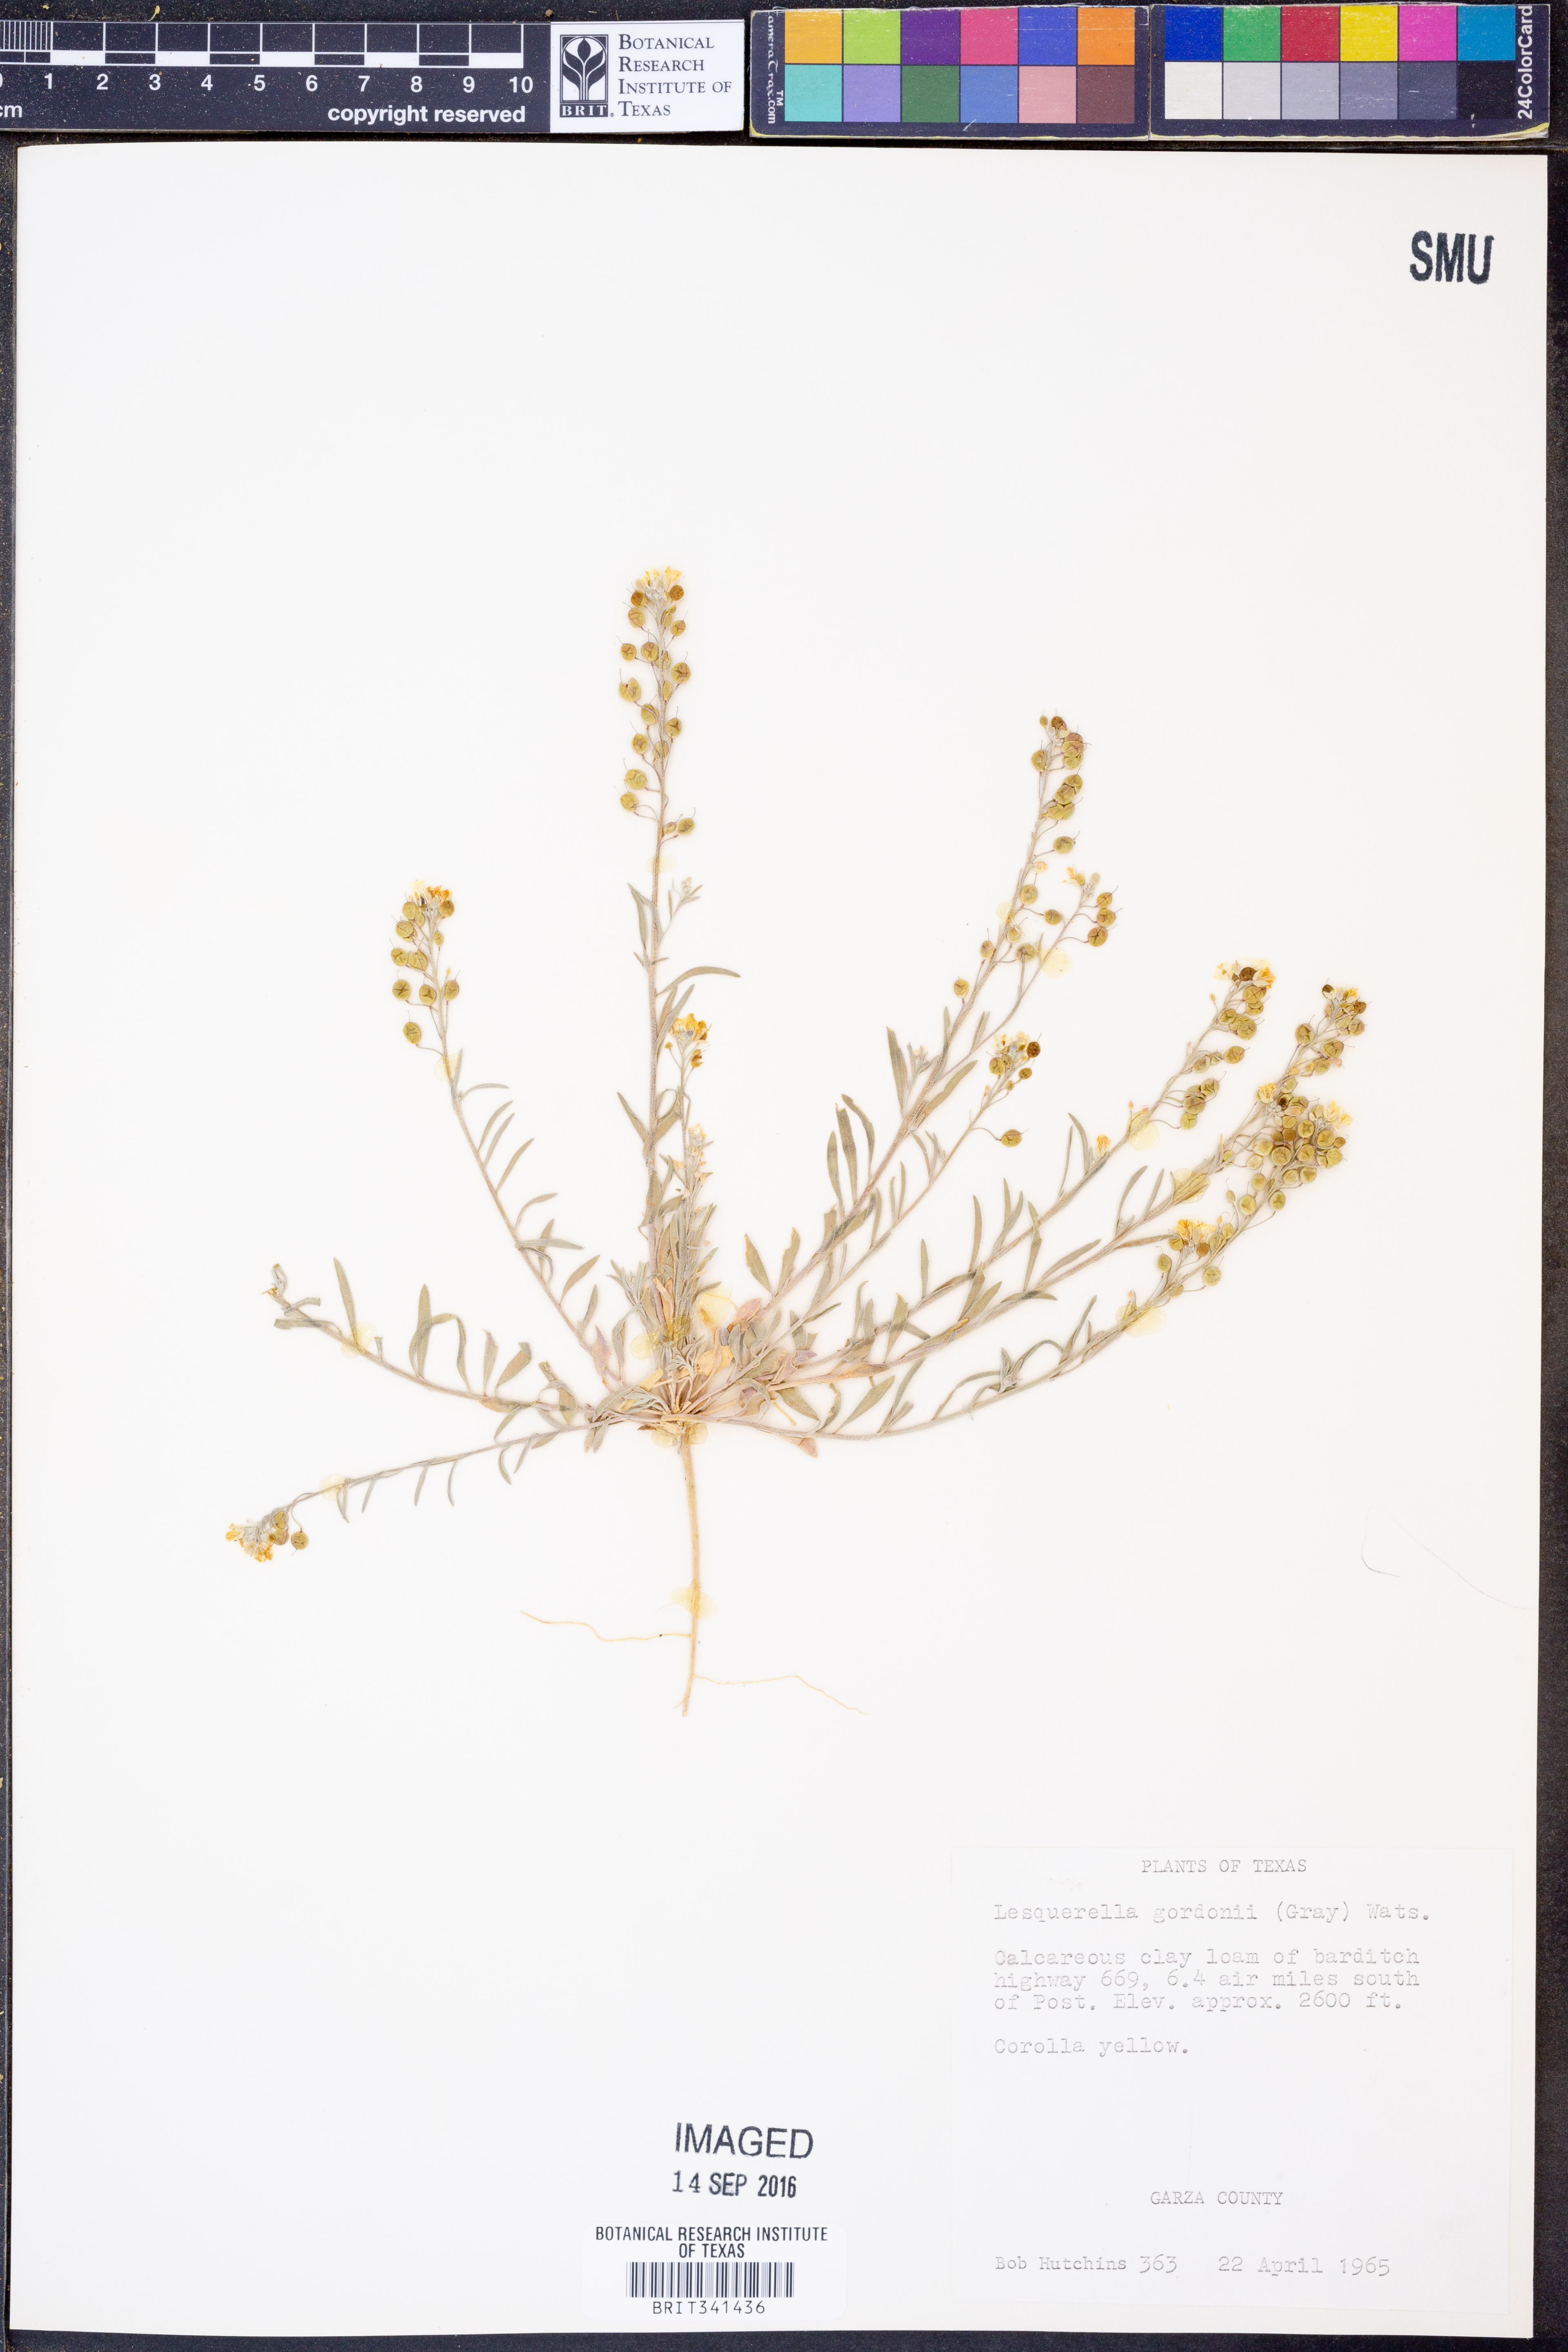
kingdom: Plantae
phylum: Tracheophyta
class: Magnoliopsida
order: Brassicales
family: Brassicaceae
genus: Physaria
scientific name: Physaria gordonii
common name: Gordon's bladderpod
